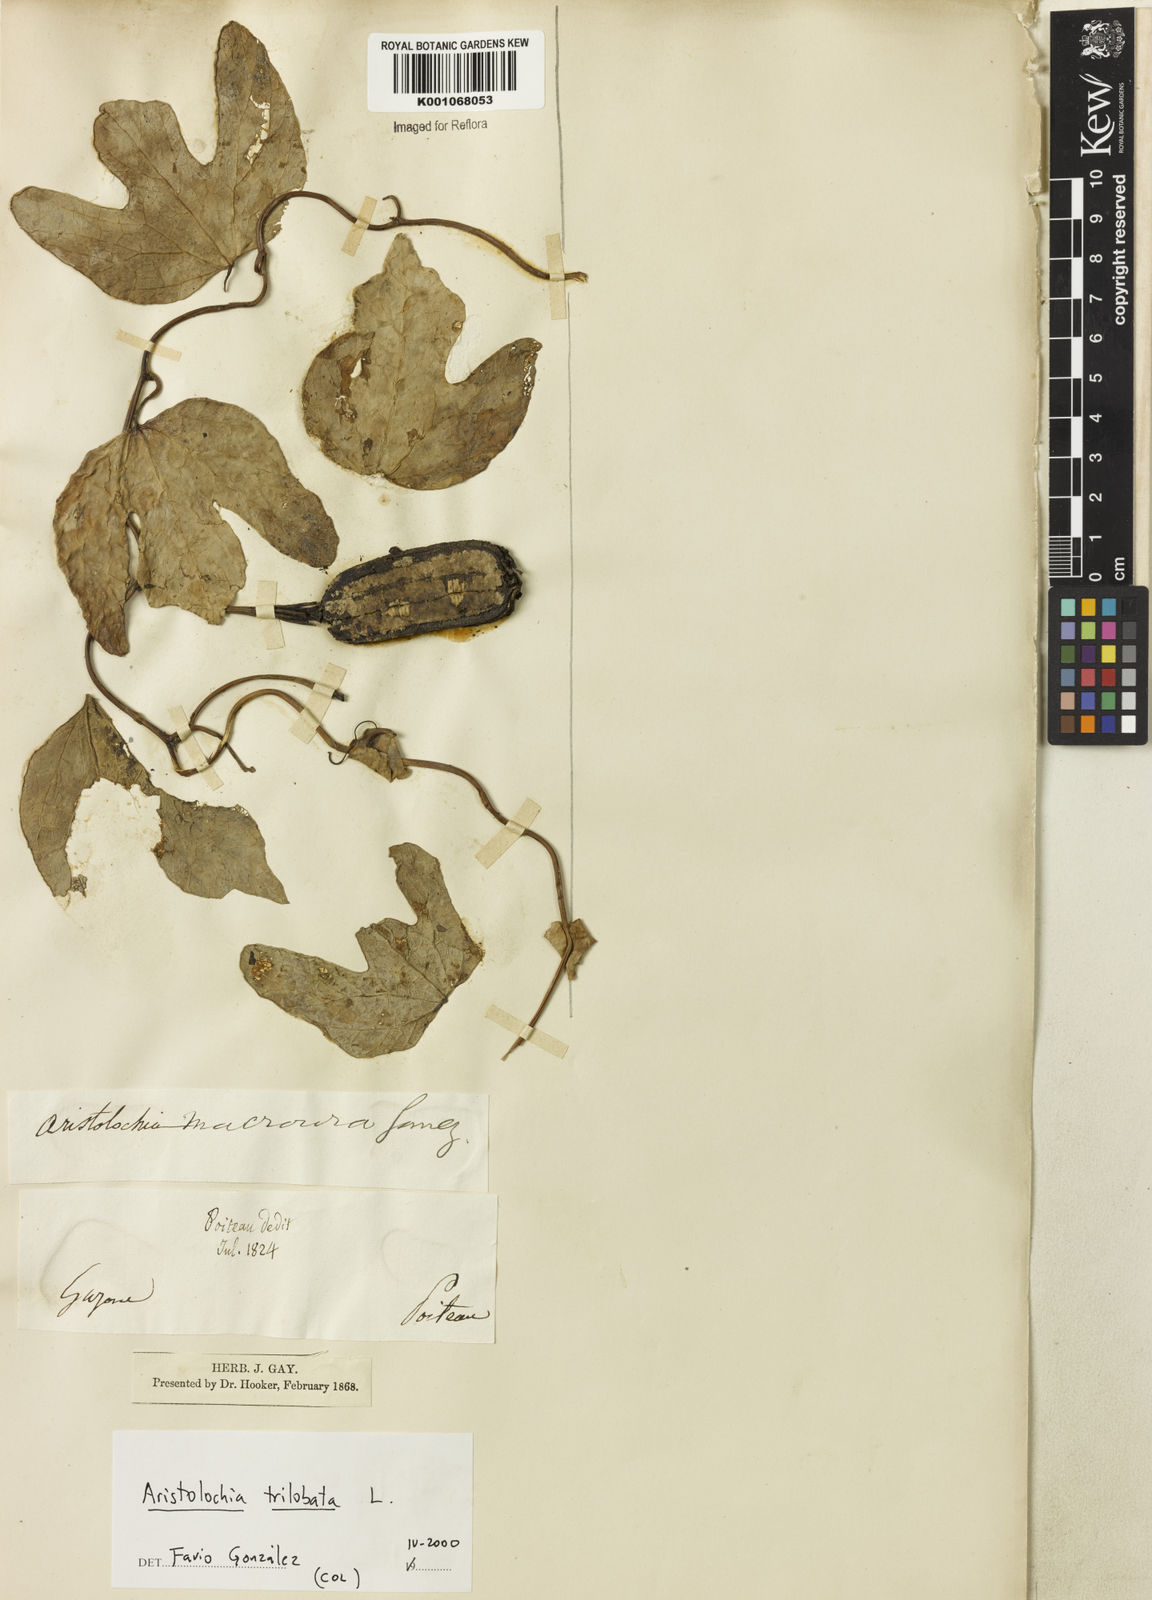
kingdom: Plantae
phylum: Tracheophyta
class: Magnoliopsida
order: Piperales
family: Aristolochiaceae
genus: Aristolochia
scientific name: Aristolochia trilobata
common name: Dutchman's pipe
